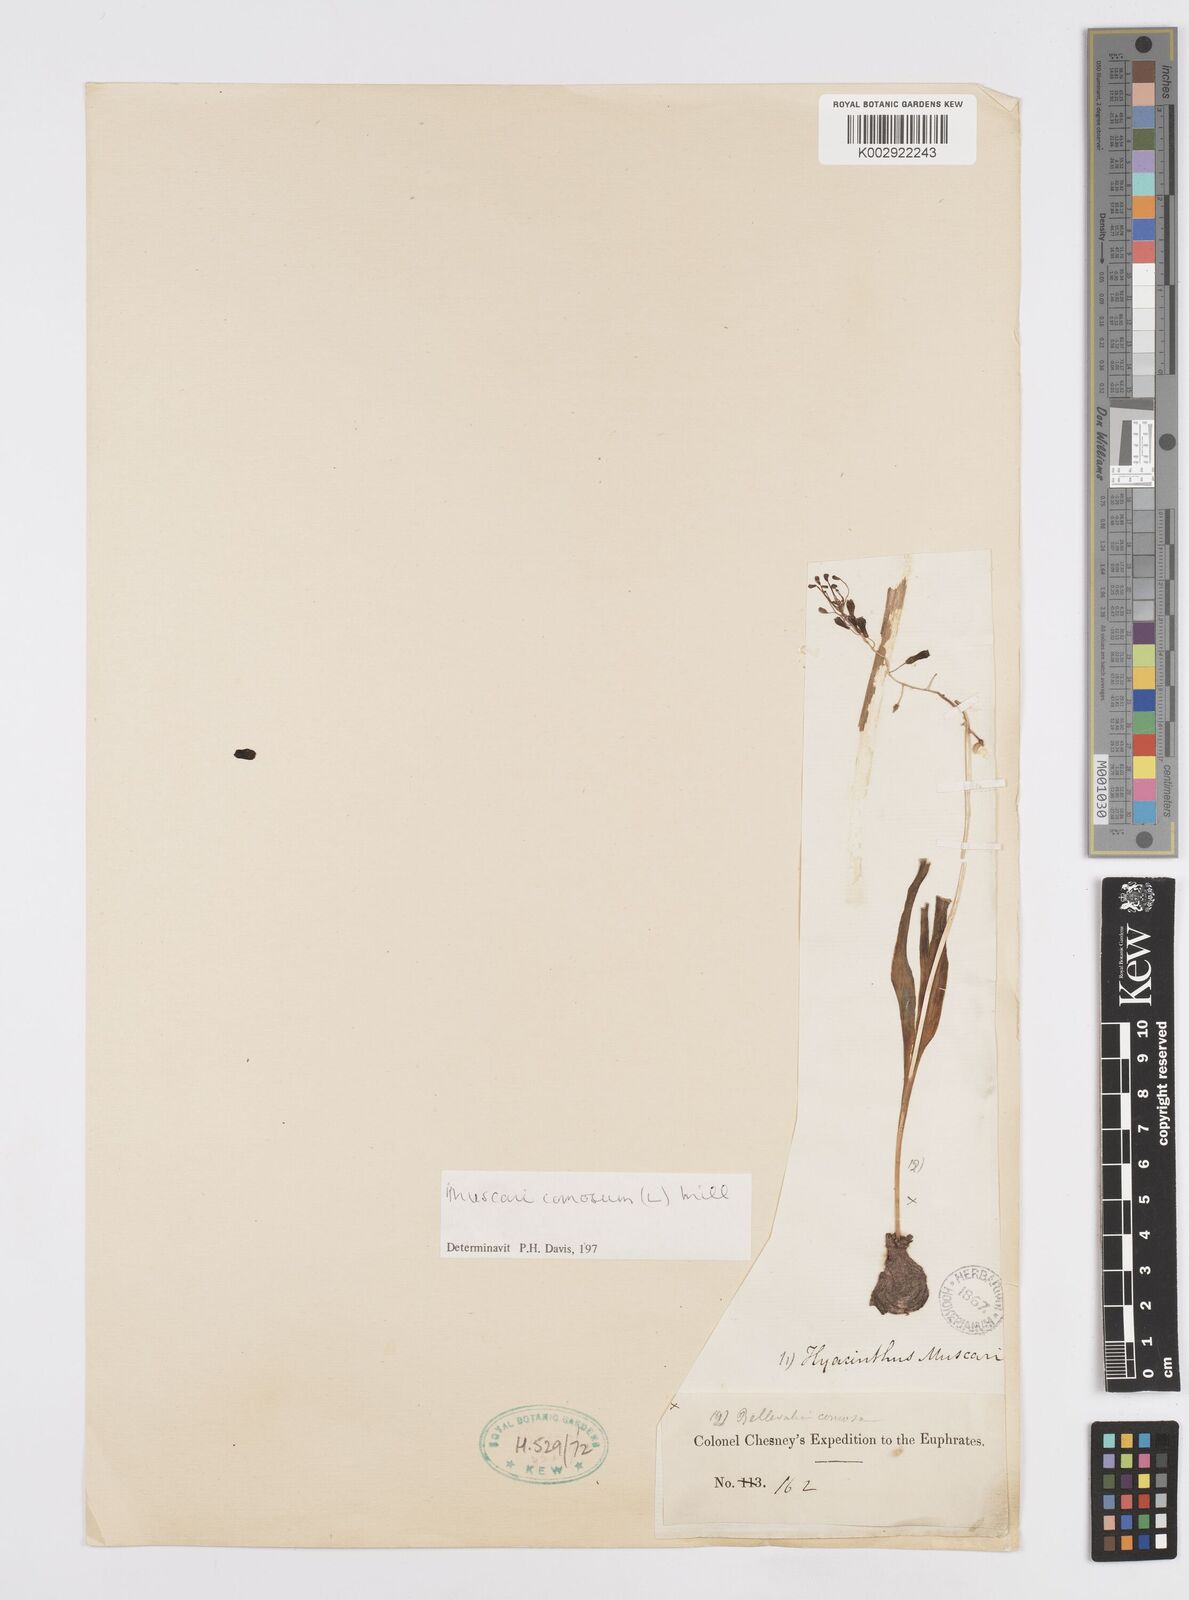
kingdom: Plantae
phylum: Tracheophyta
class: Liliopsida
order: Asparagales
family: Asparagaceae
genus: Muscari
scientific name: Muscari comosum
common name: Tassel hyacinth
